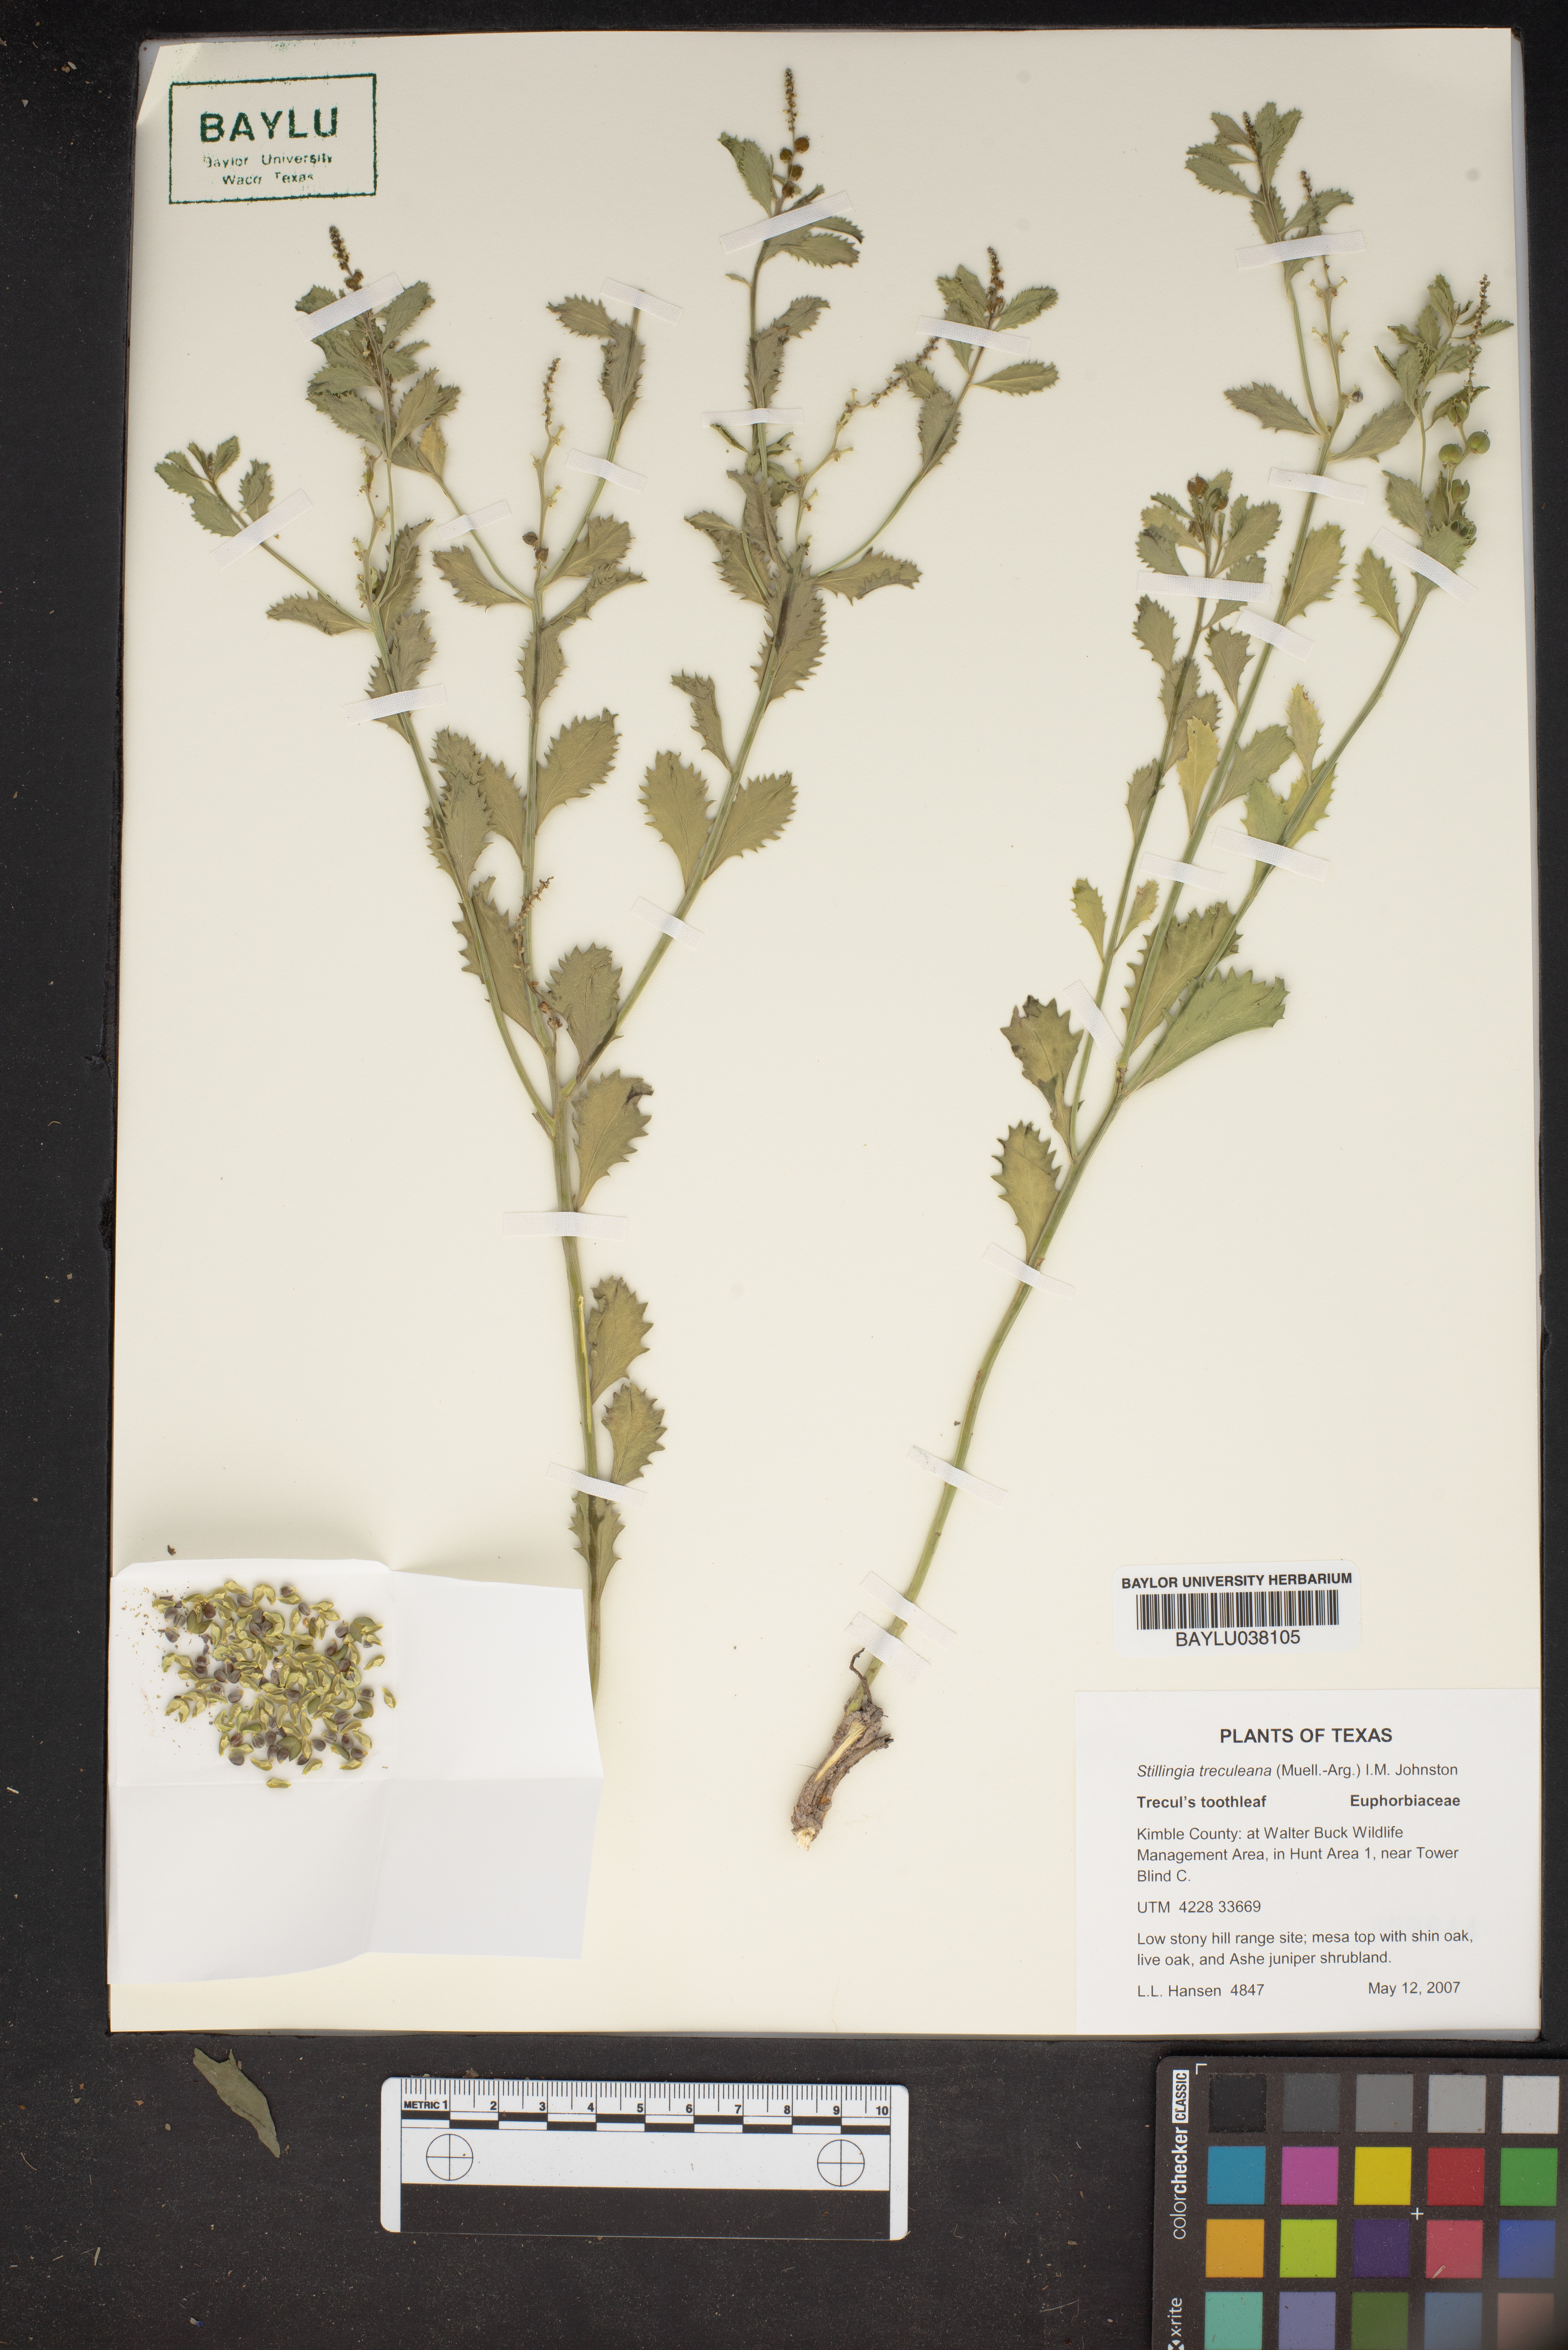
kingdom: Plantae
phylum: Tracheophyta
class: Magnoliopsida
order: Malpighiales
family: Euphorbiaceae
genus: Stillingia
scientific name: Stillingia treculiana
